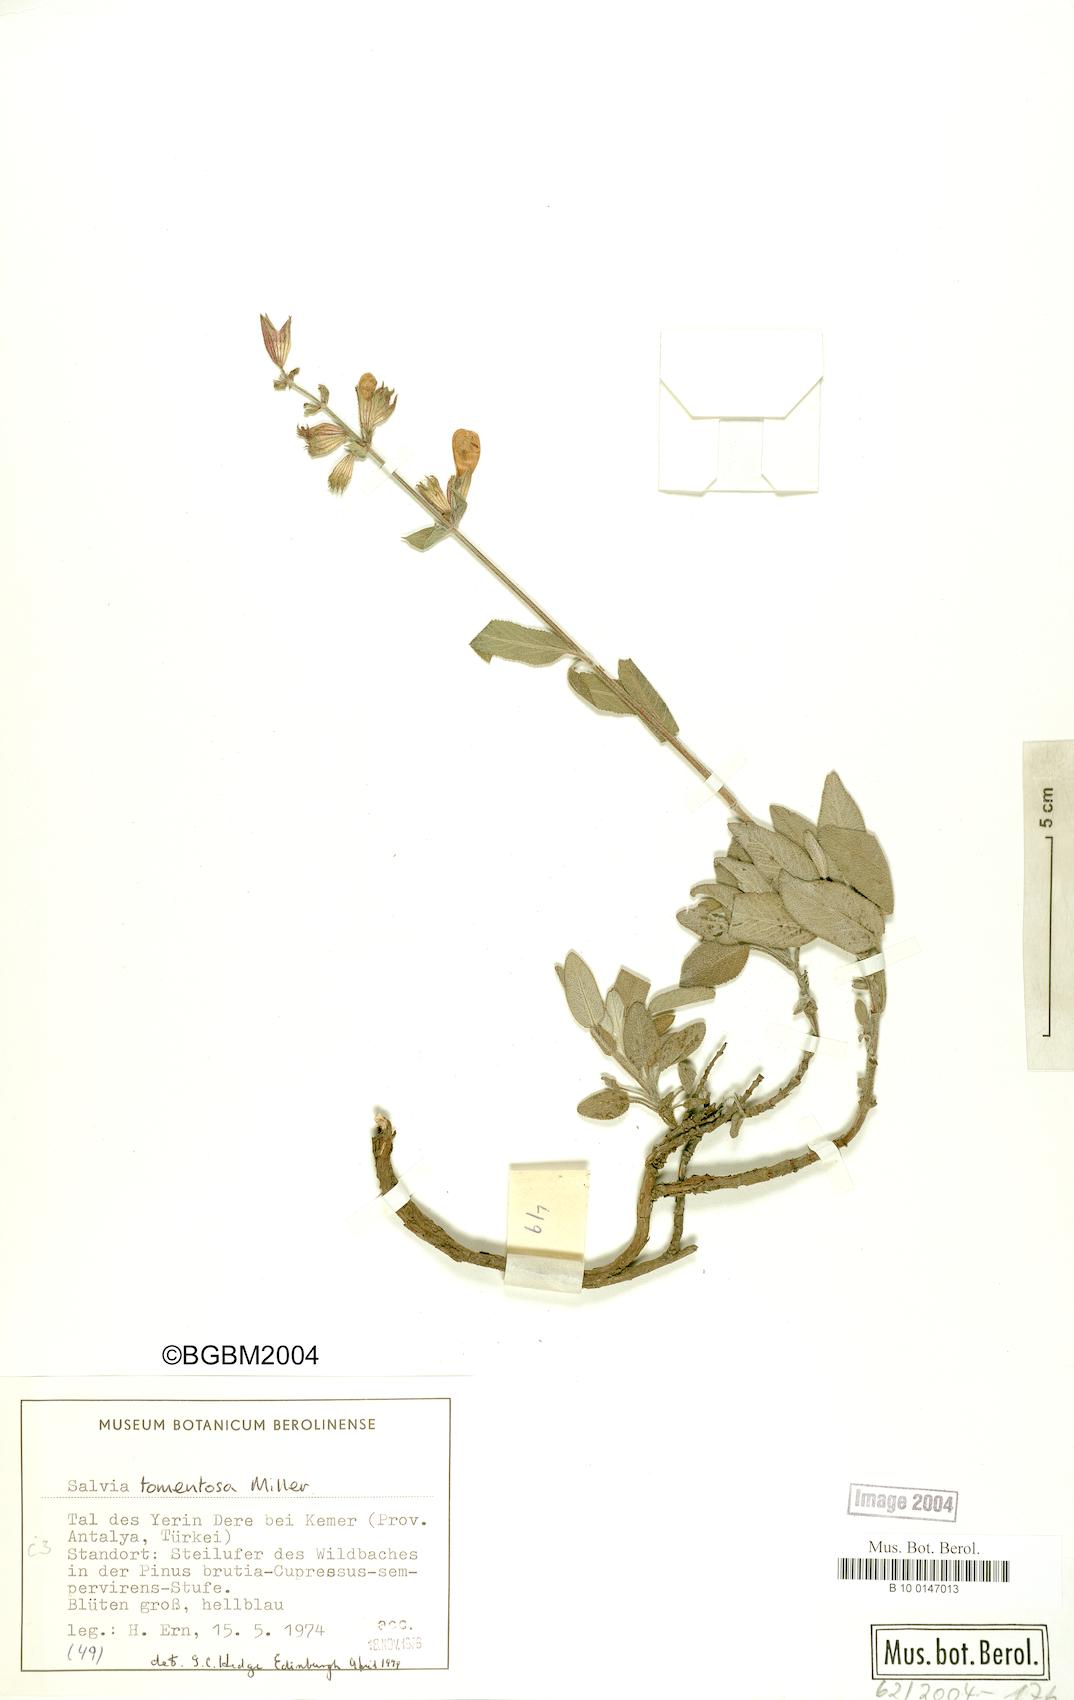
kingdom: Plantae
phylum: Tracheophyta
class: Magnoliopsida
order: Lamiales
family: Lamiaceae
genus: Salvia
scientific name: Salvia tomentosa
